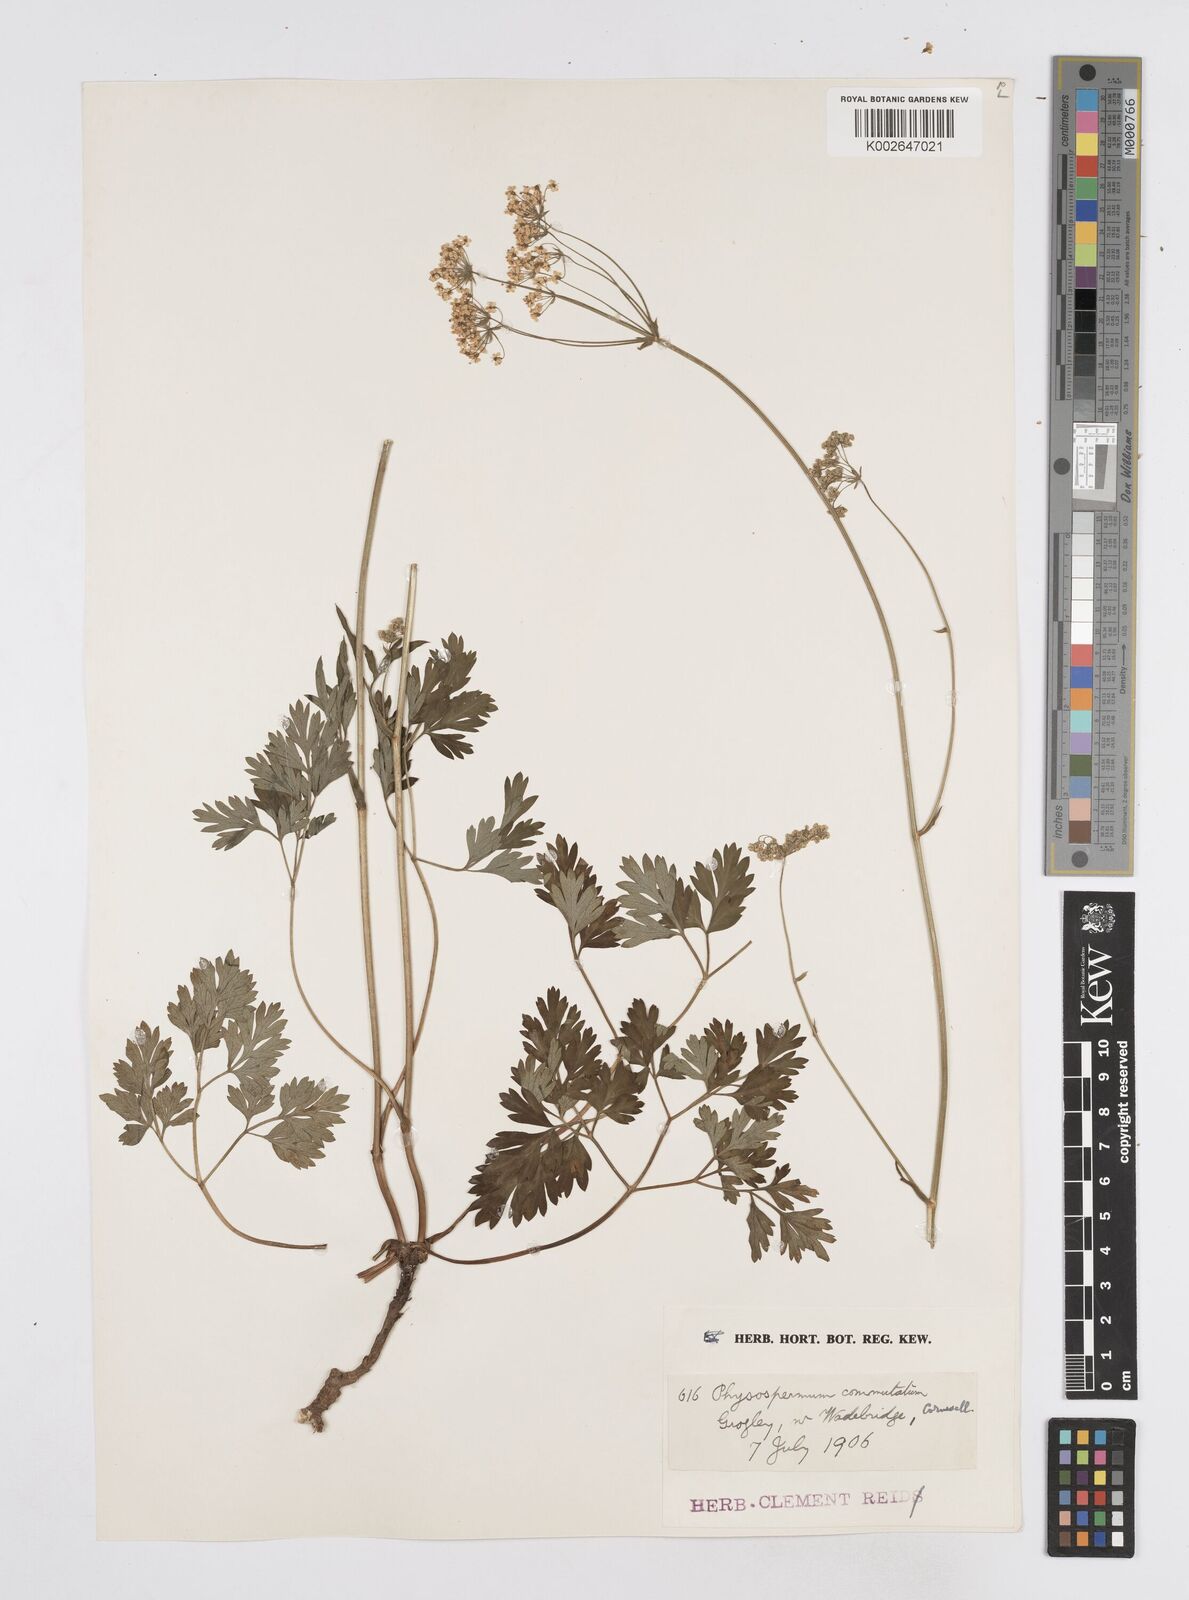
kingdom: Plantae
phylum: Tracheophyta
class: Magnoliopsida
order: Apiales
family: Apiaceae
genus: Physospermum
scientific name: Physospermum cornubiense
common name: Bladderseed
